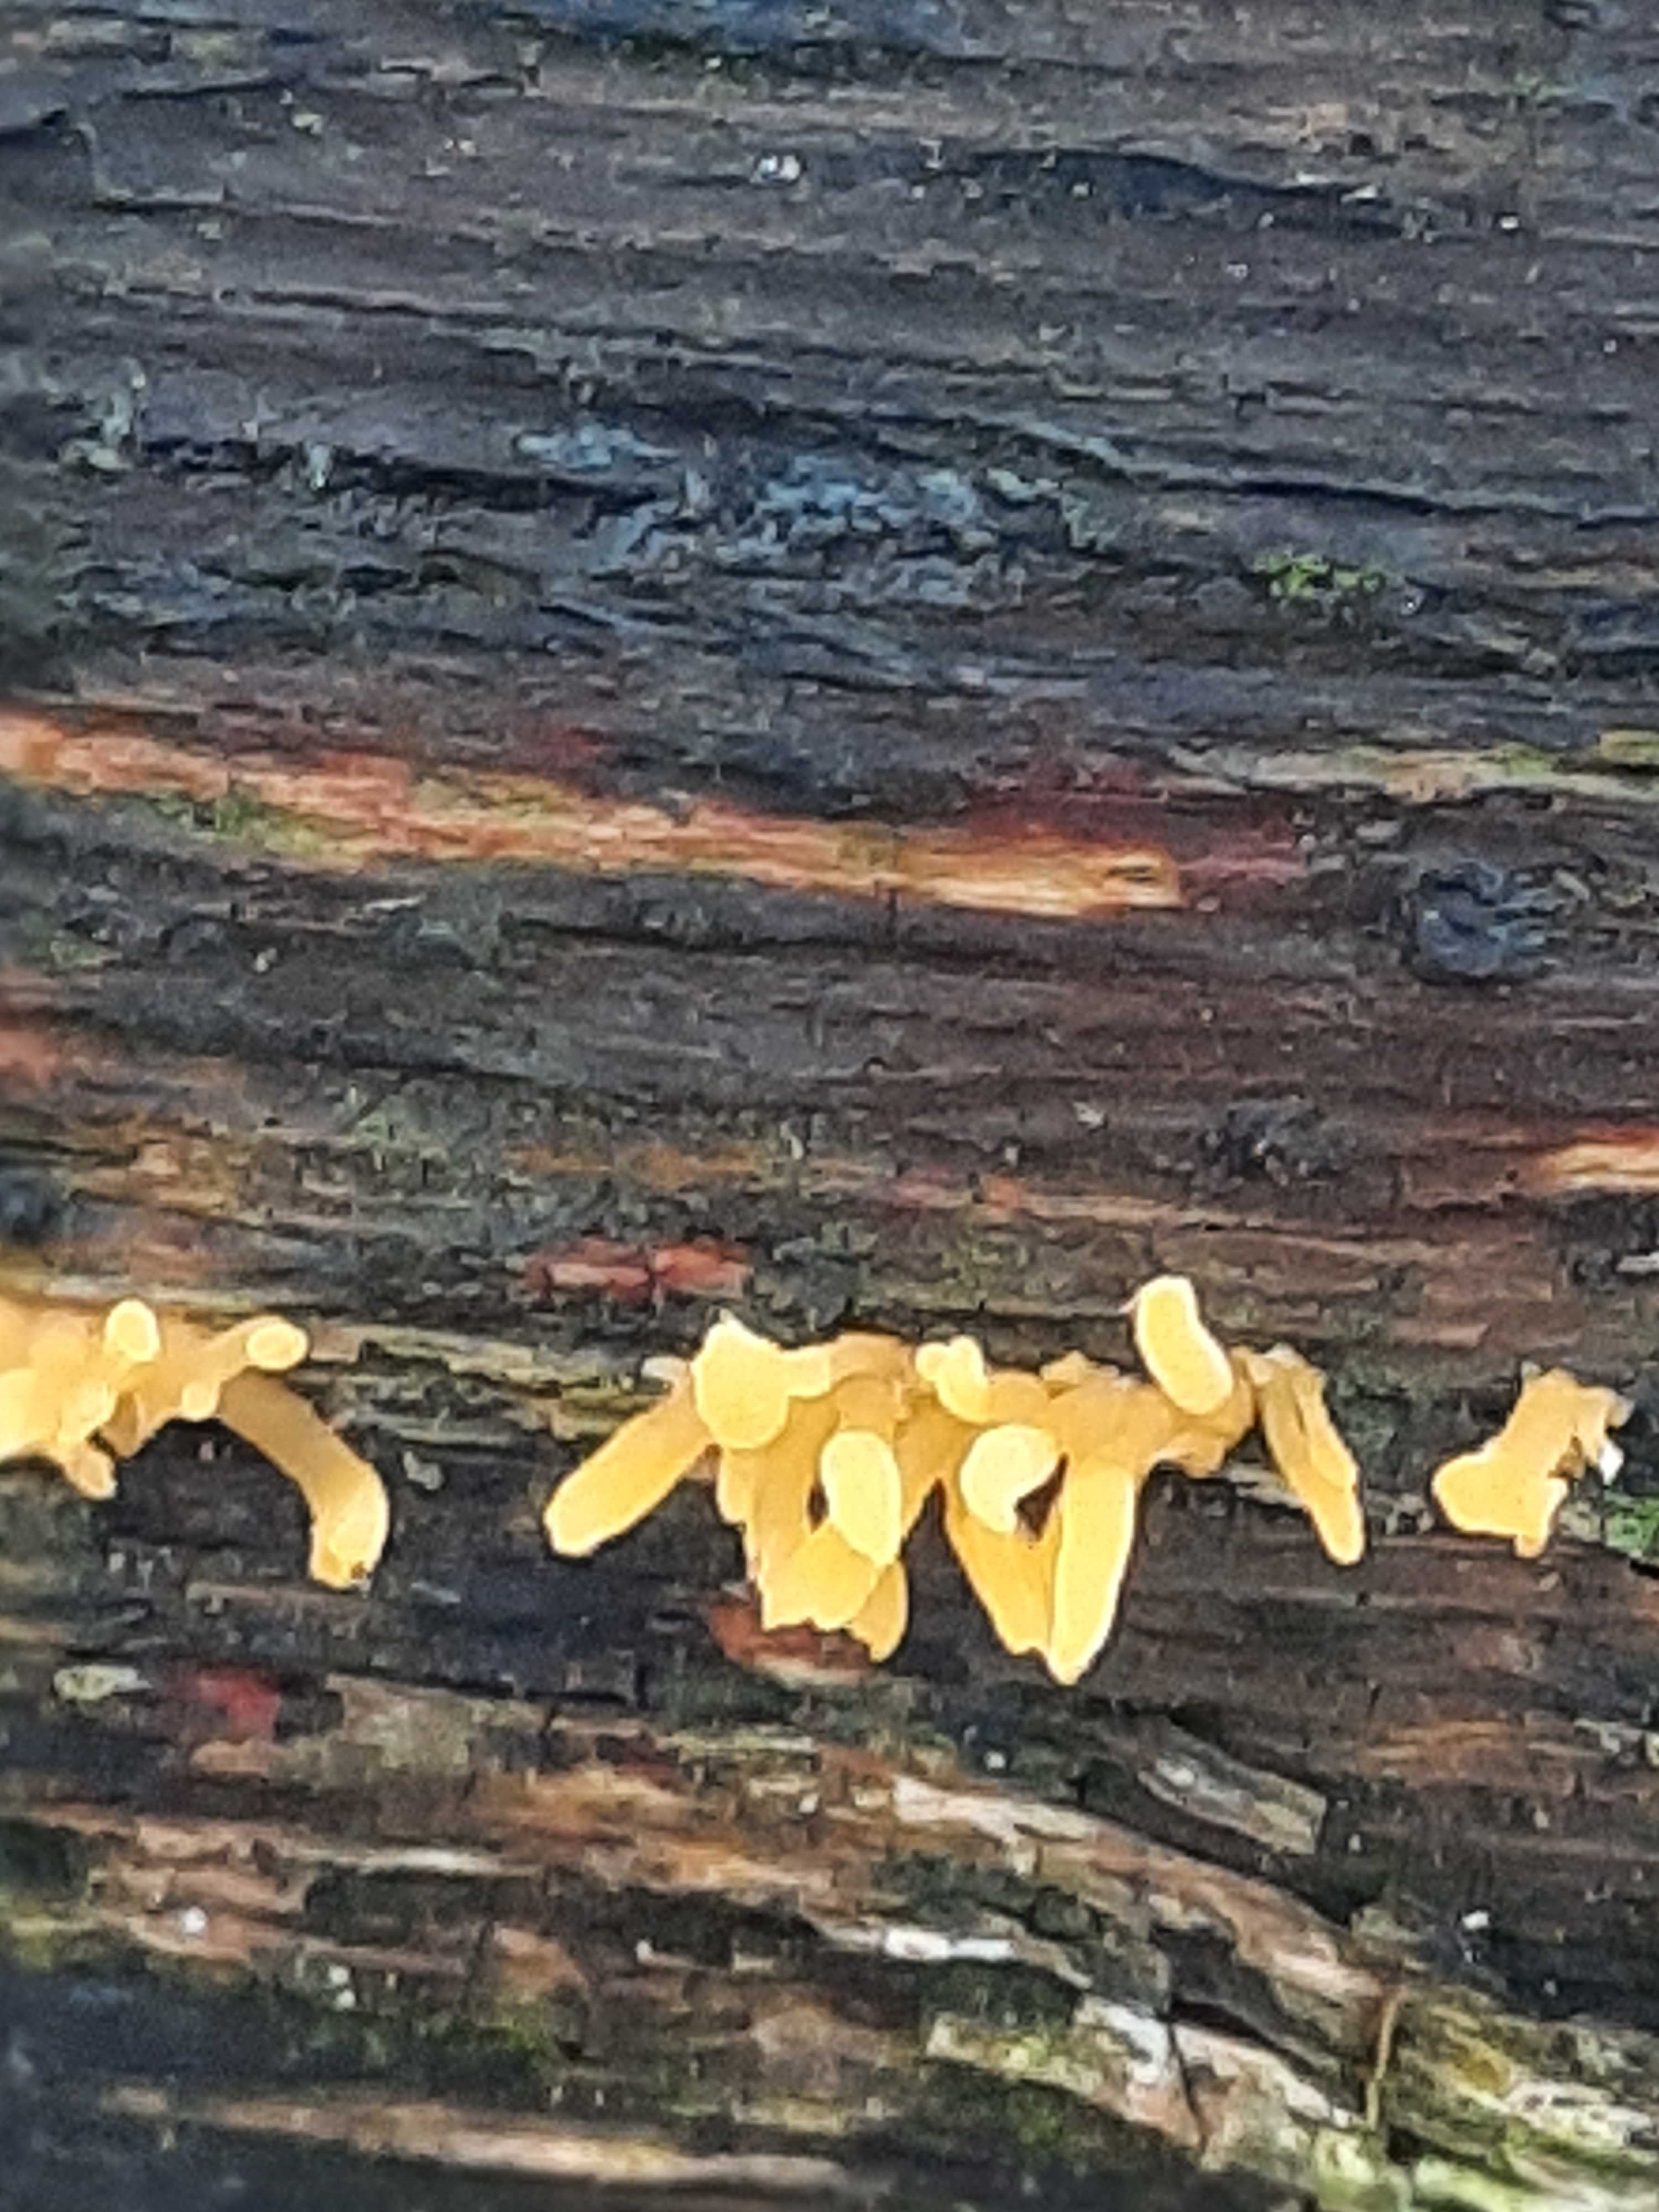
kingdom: Fungi
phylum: Basidiomycota
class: Dacrymycetes
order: Dacrymycetales
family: Dacrymycetaceae
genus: Calocera
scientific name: Calocera cornea
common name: liden guldgaffel
